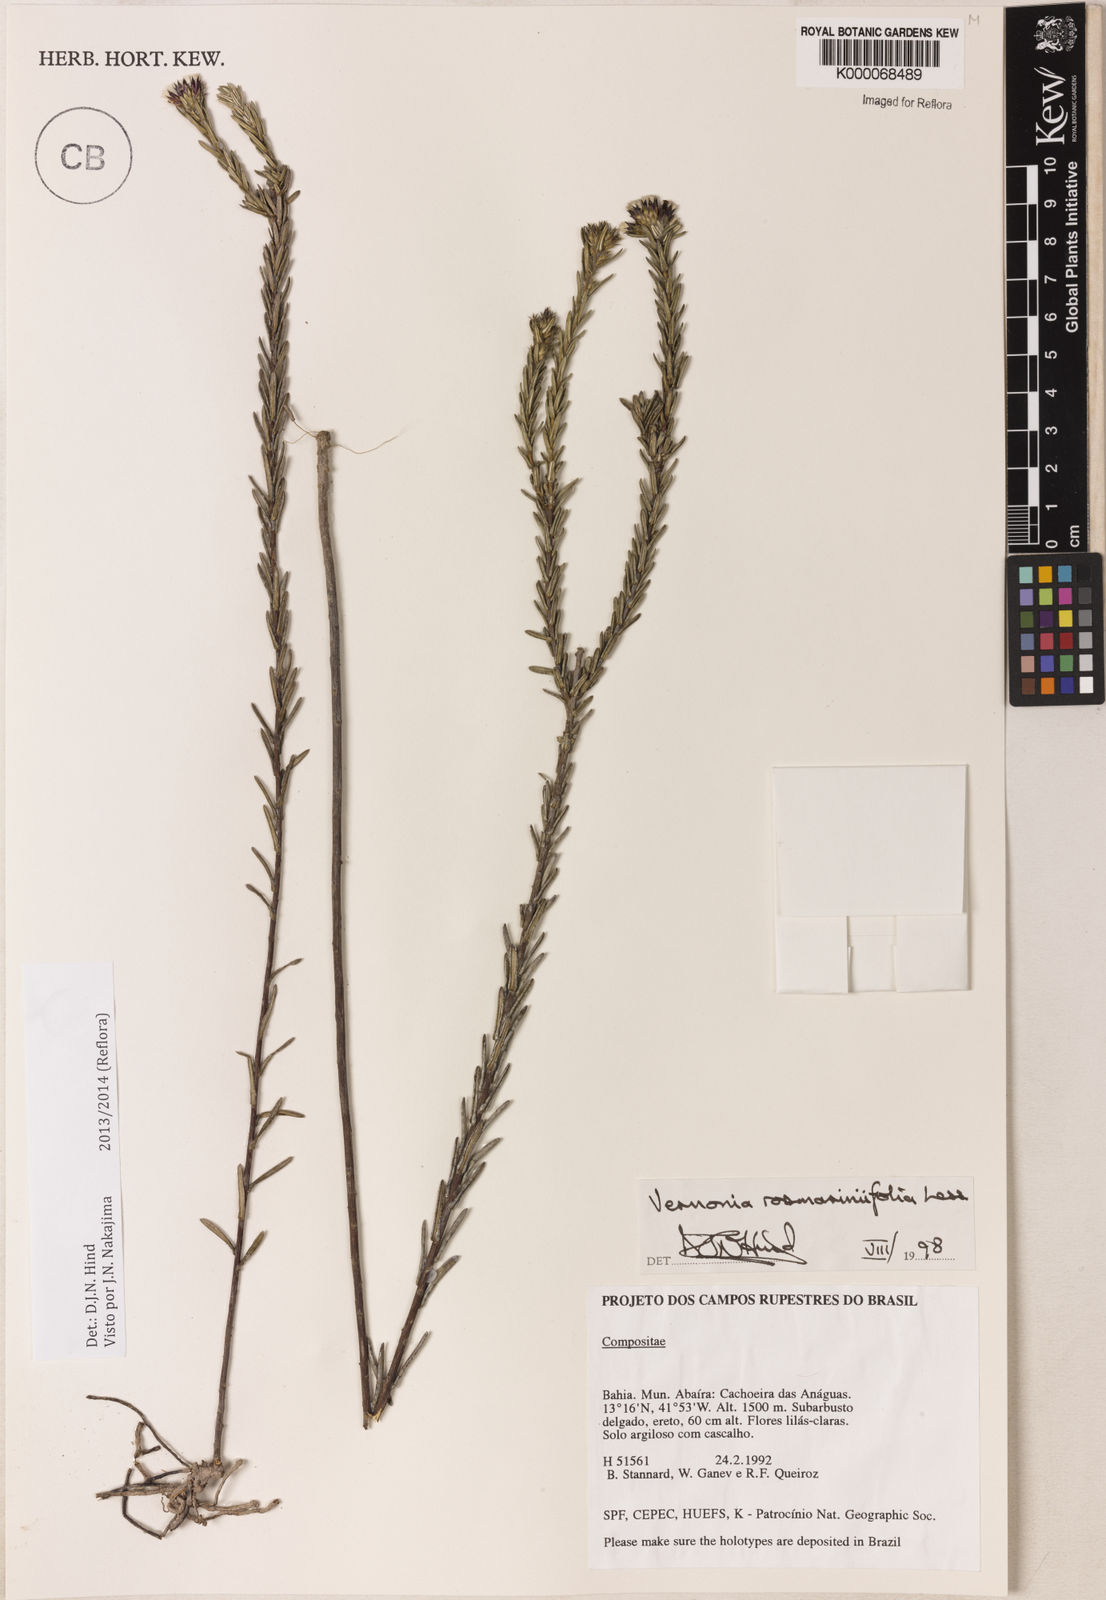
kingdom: Plantae
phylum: Tracheophyta
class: Magnoliopsida
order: Asterales
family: Asteraceae
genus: Lessingianthus
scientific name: Lessingianthus rosmarinifolius
